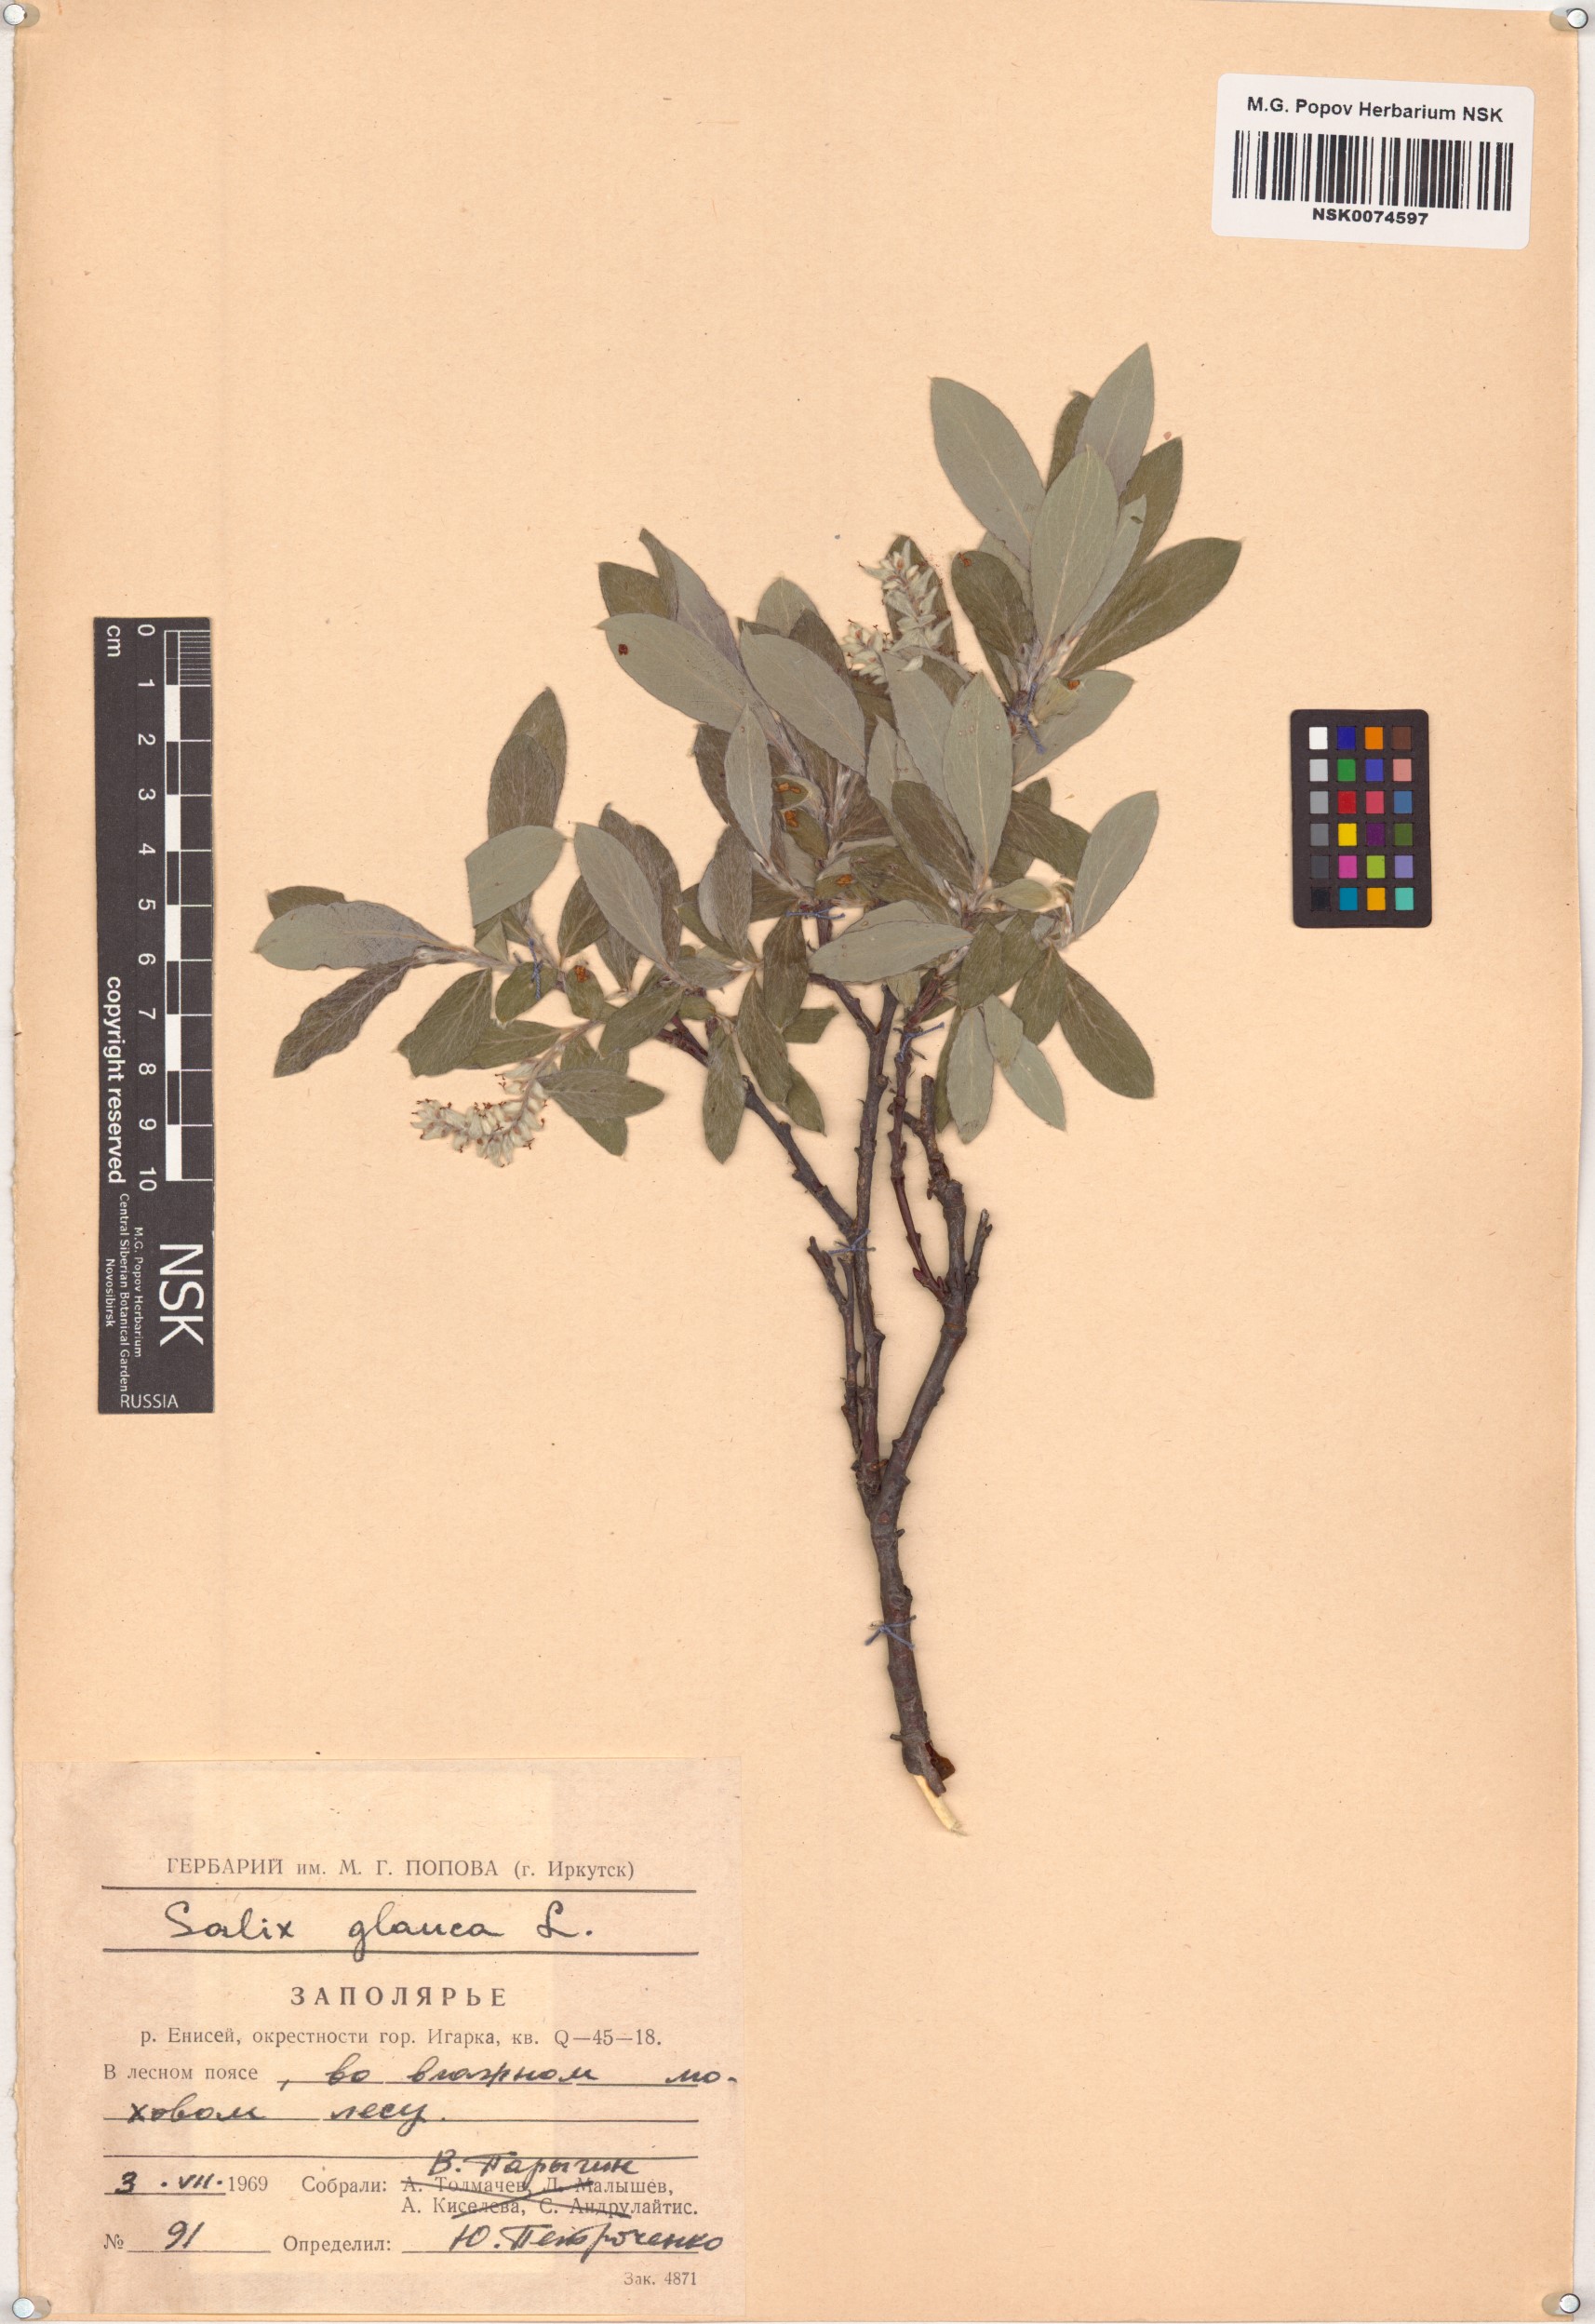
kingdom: Plantae
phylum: Tracheophyta
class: Magnoliopsida
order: Malpighiales
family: Salicaceae
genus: Salix
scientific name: Salix glauca
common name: Glaucous willow
